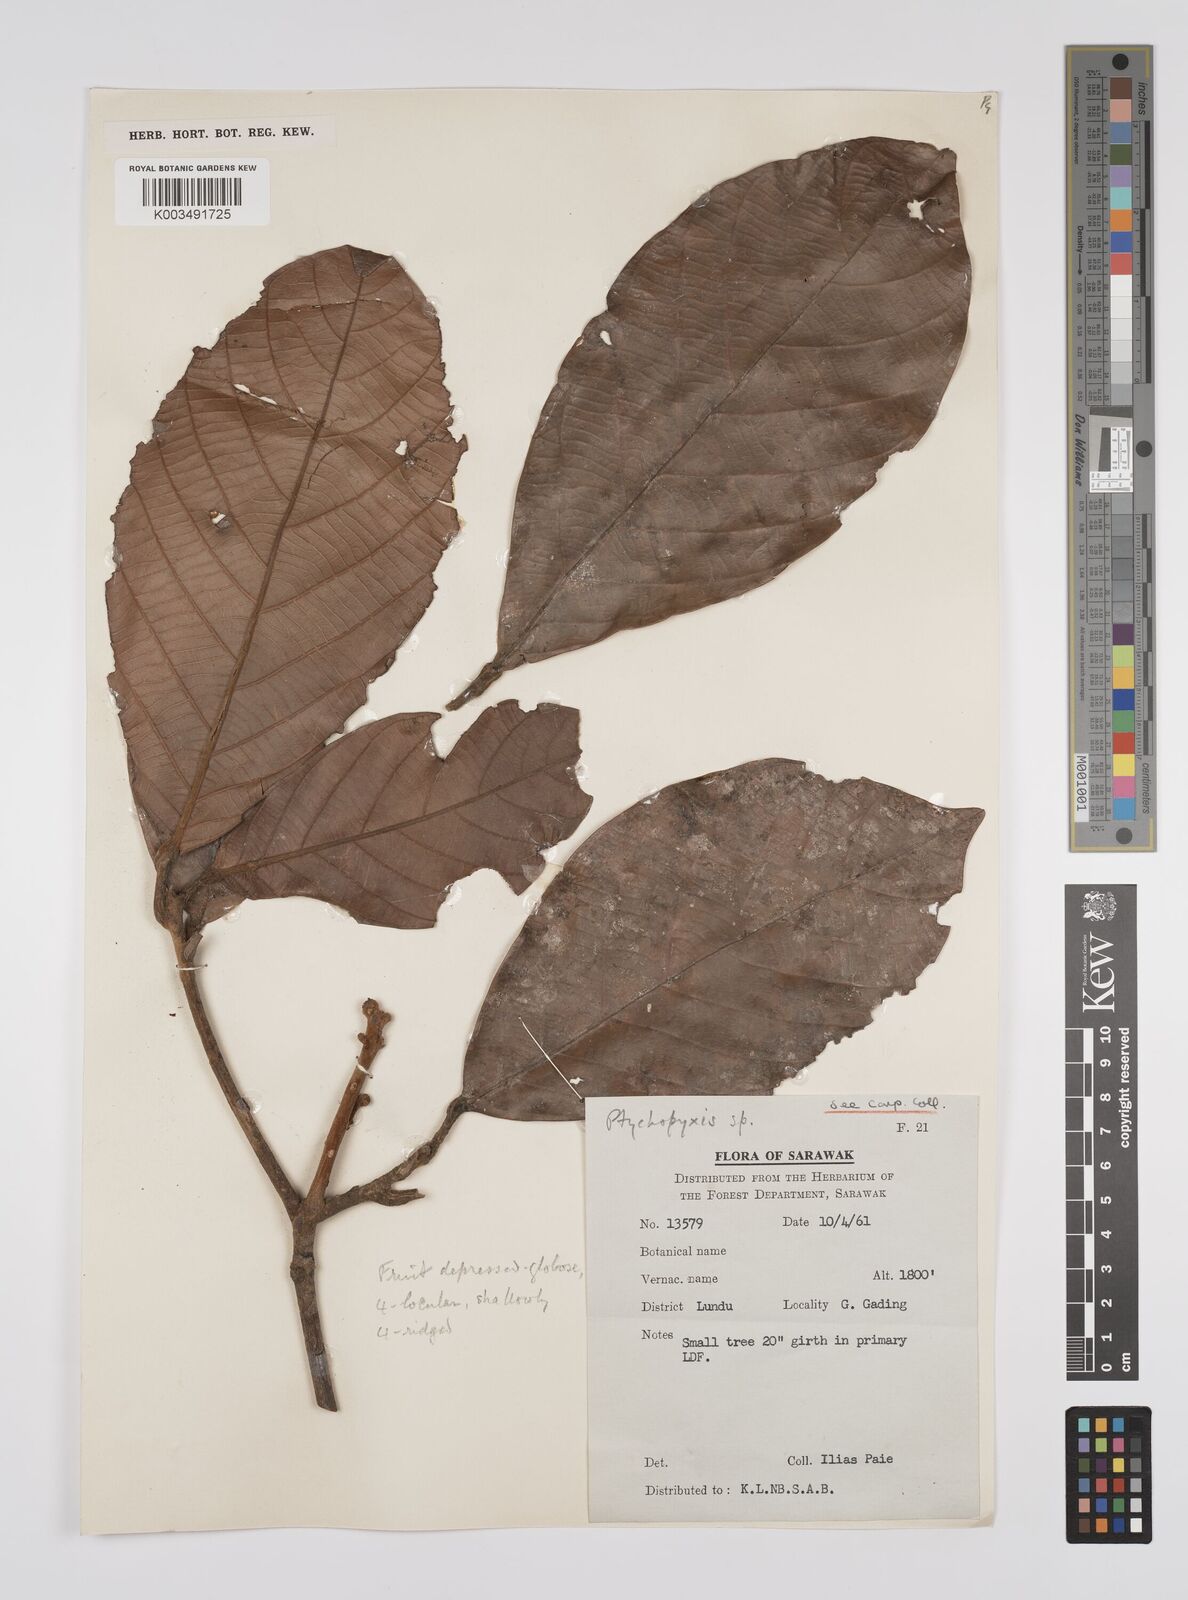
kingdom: Plantae
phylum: Tracheophyta
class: Magnoliopsida
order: Malpighiales
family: Euphorbiaceae
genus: Ptychopyxis
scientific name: Ptychopyxis kingii
